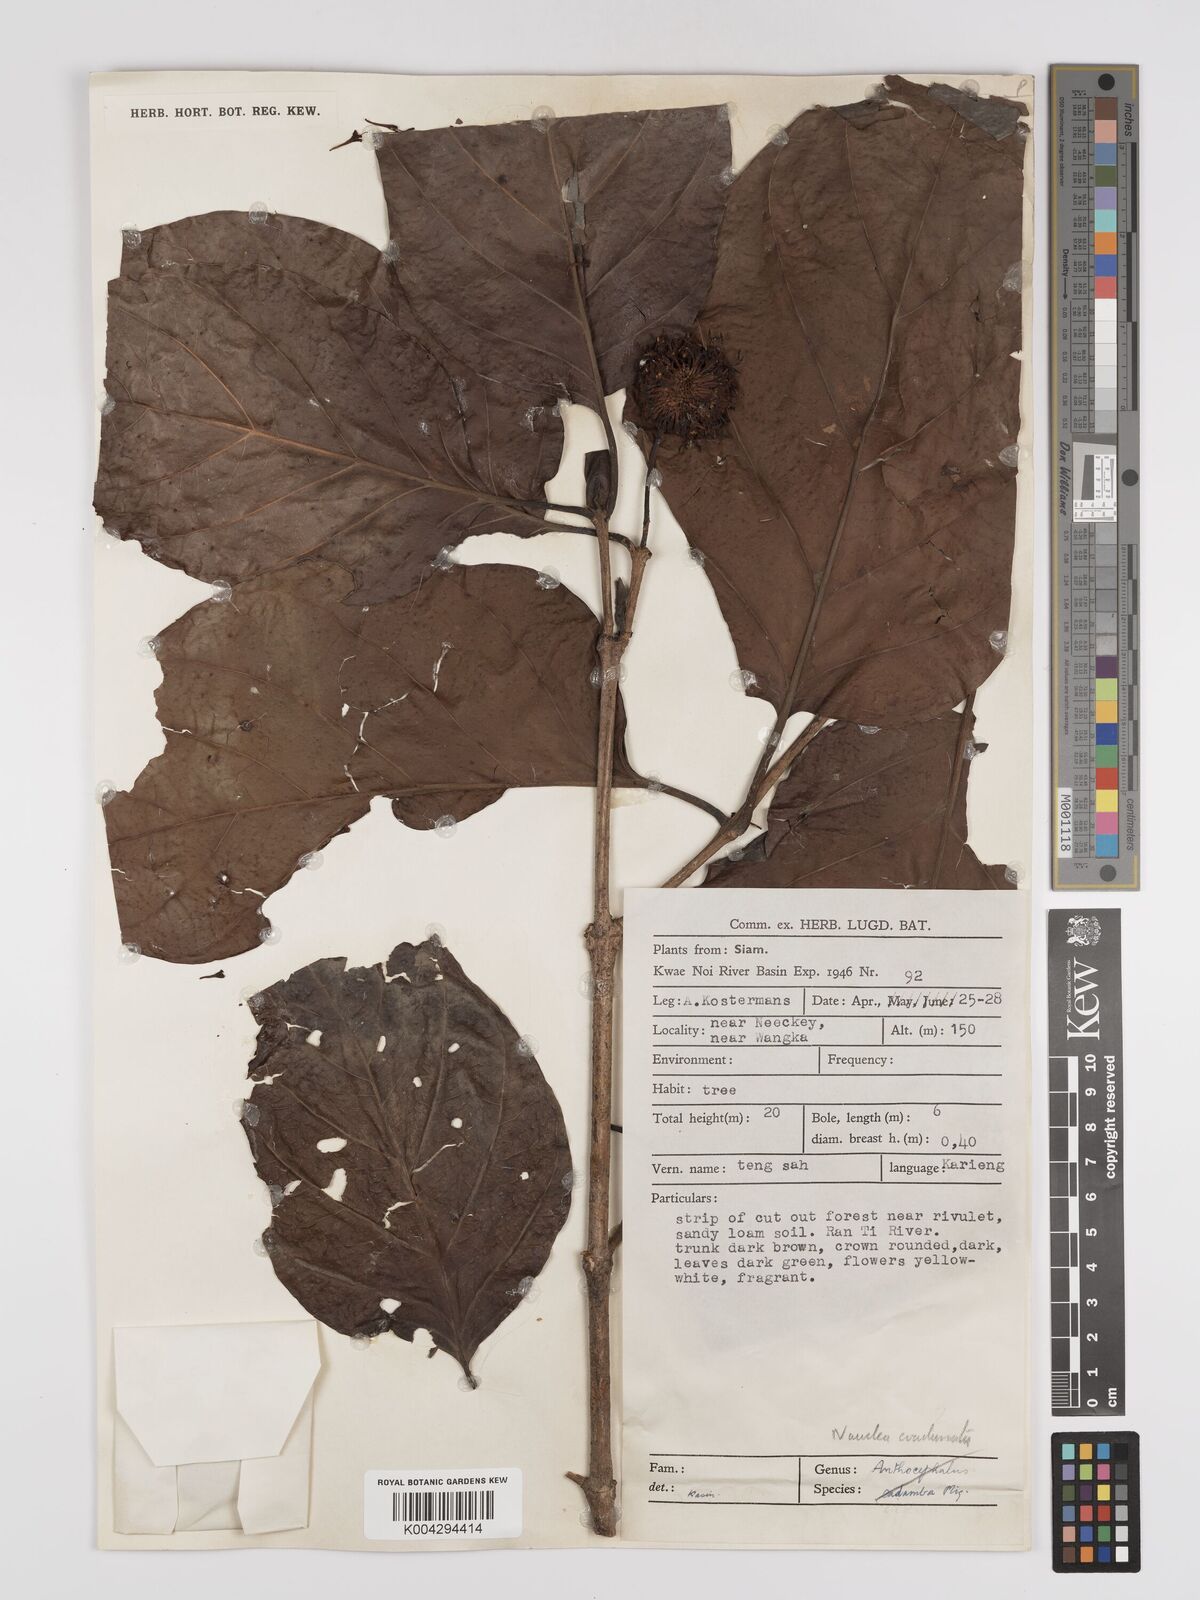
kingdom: Plantae
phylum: Tracheophyta
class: Magnoliopsida
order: Gentianales
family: Rubiaceae
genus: Nauclea
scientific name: Nauclea orientalis
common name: Leichhardt-pine
